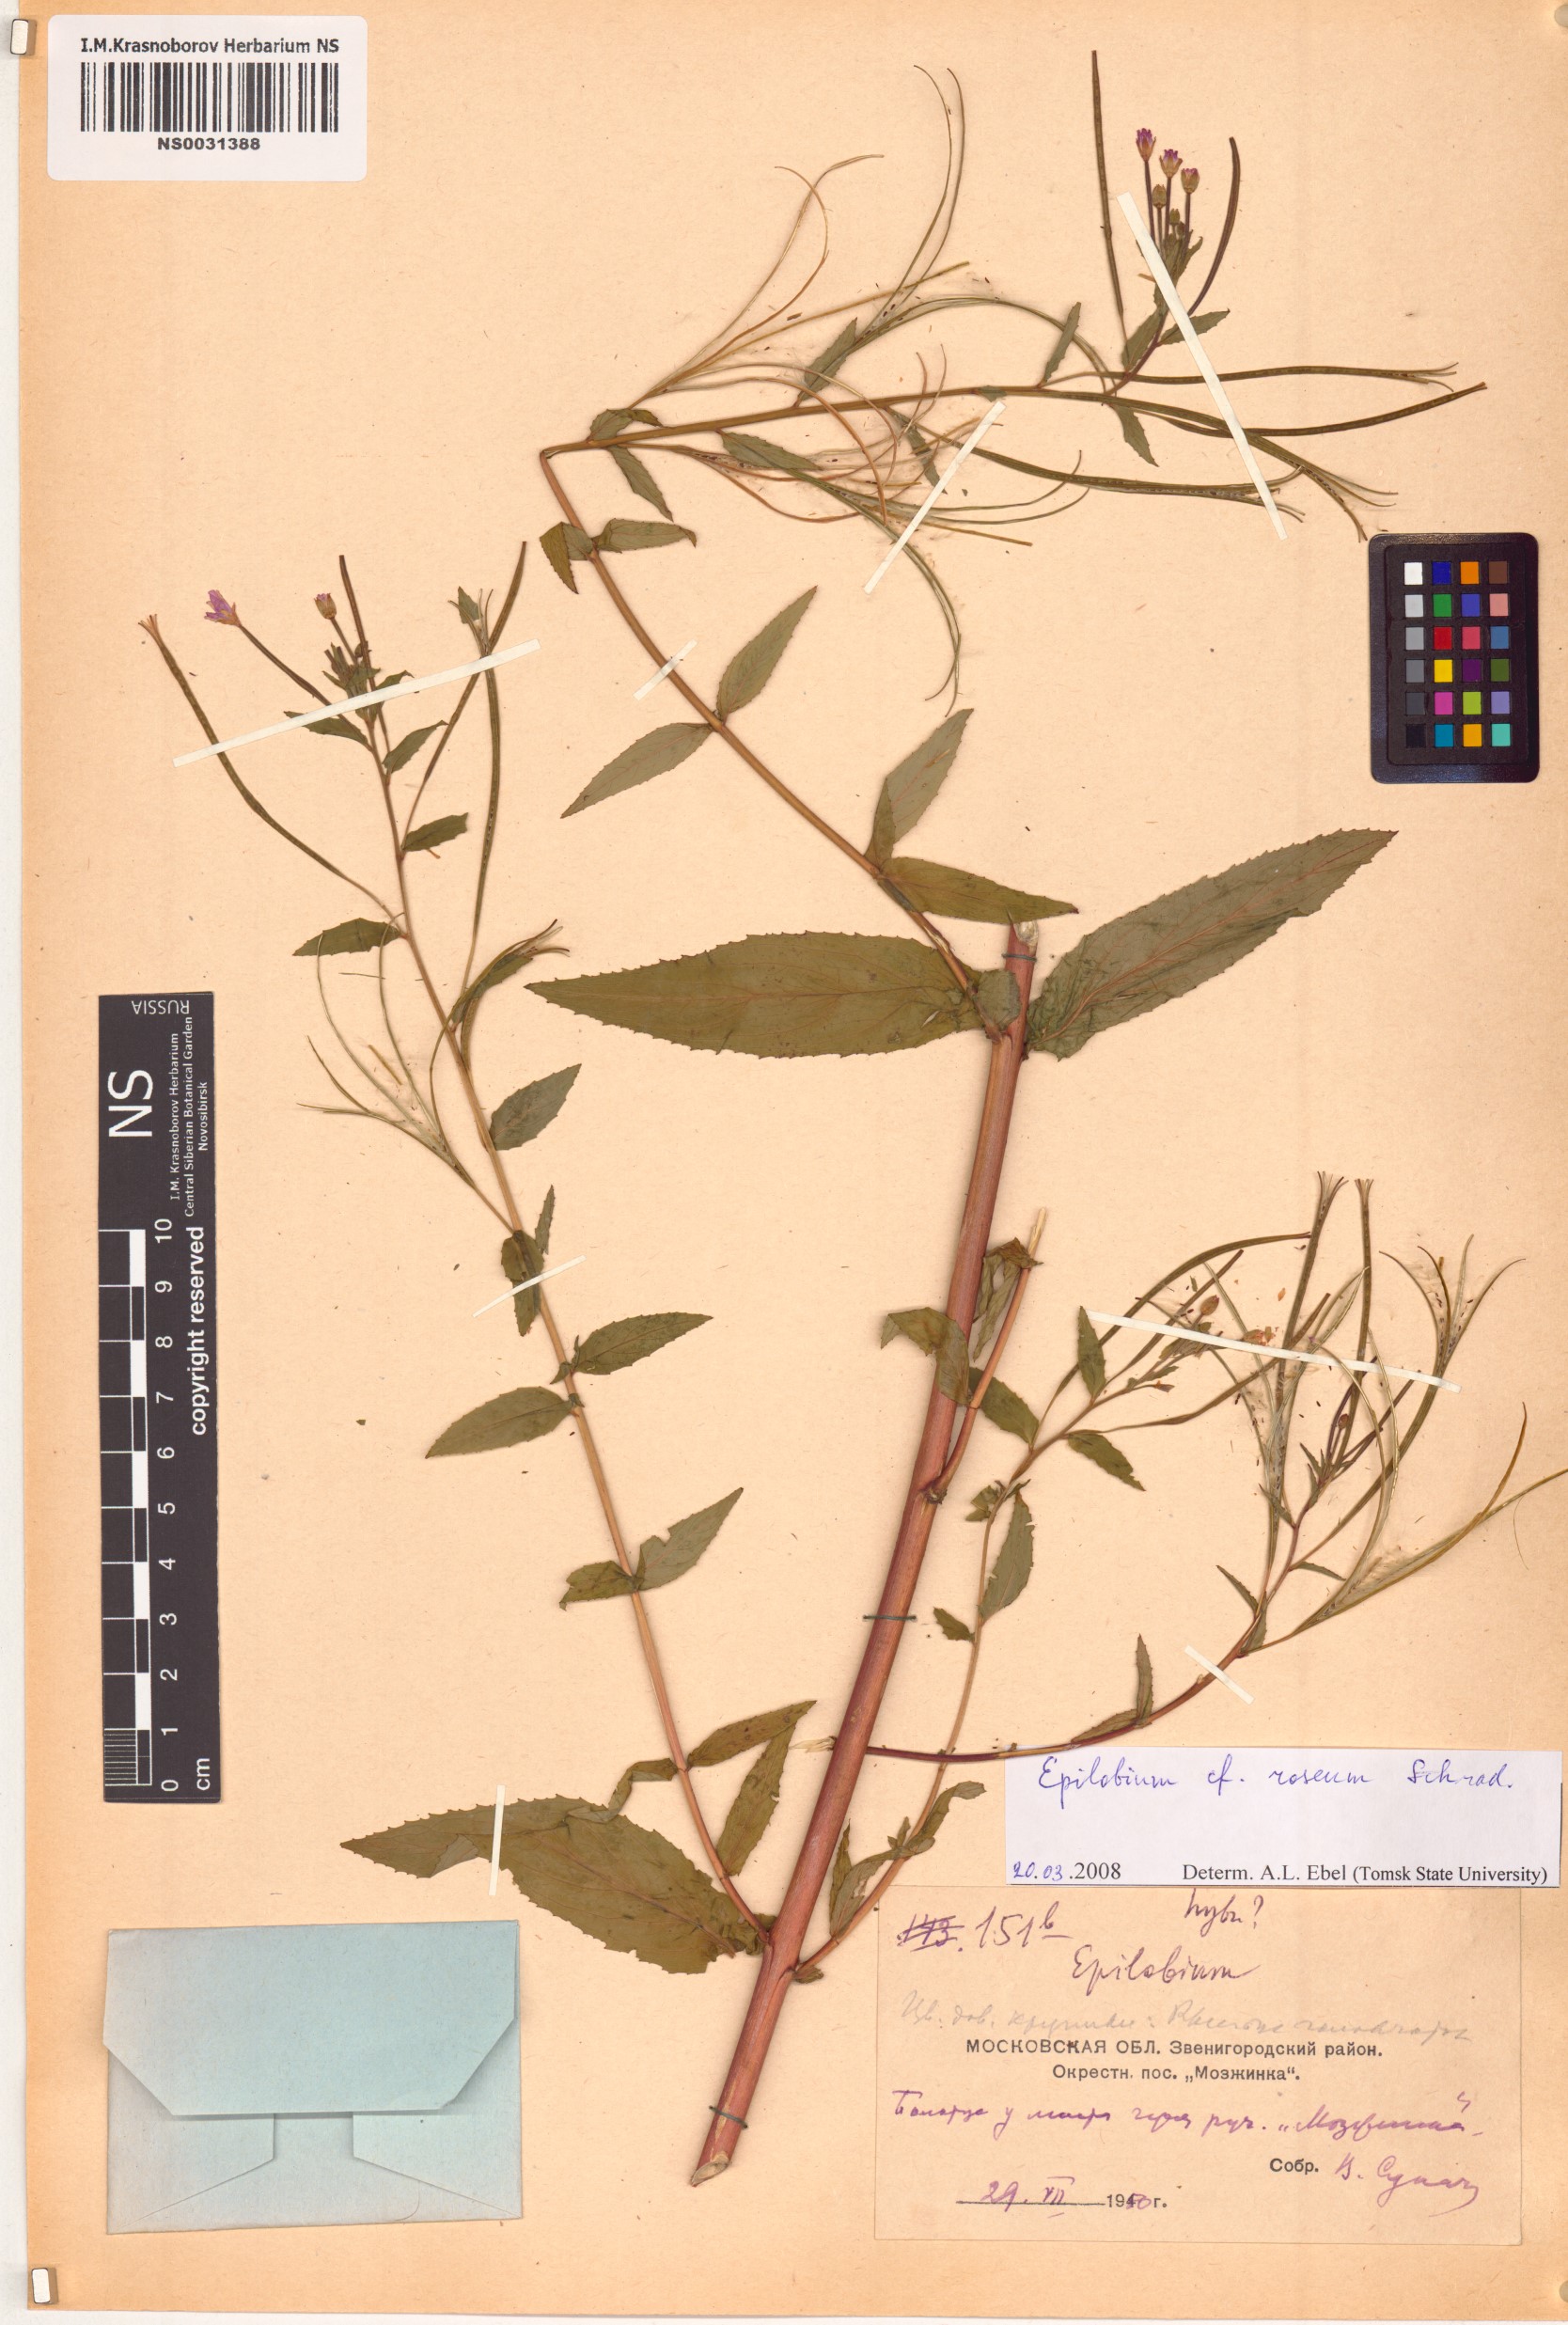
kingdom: Plantae
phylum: Tracheophyta
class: Magnoliopsida
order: Myrtales
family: Onagraceae
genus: Epilobium
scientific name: Epilobium roseum
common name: Pale willowherb
